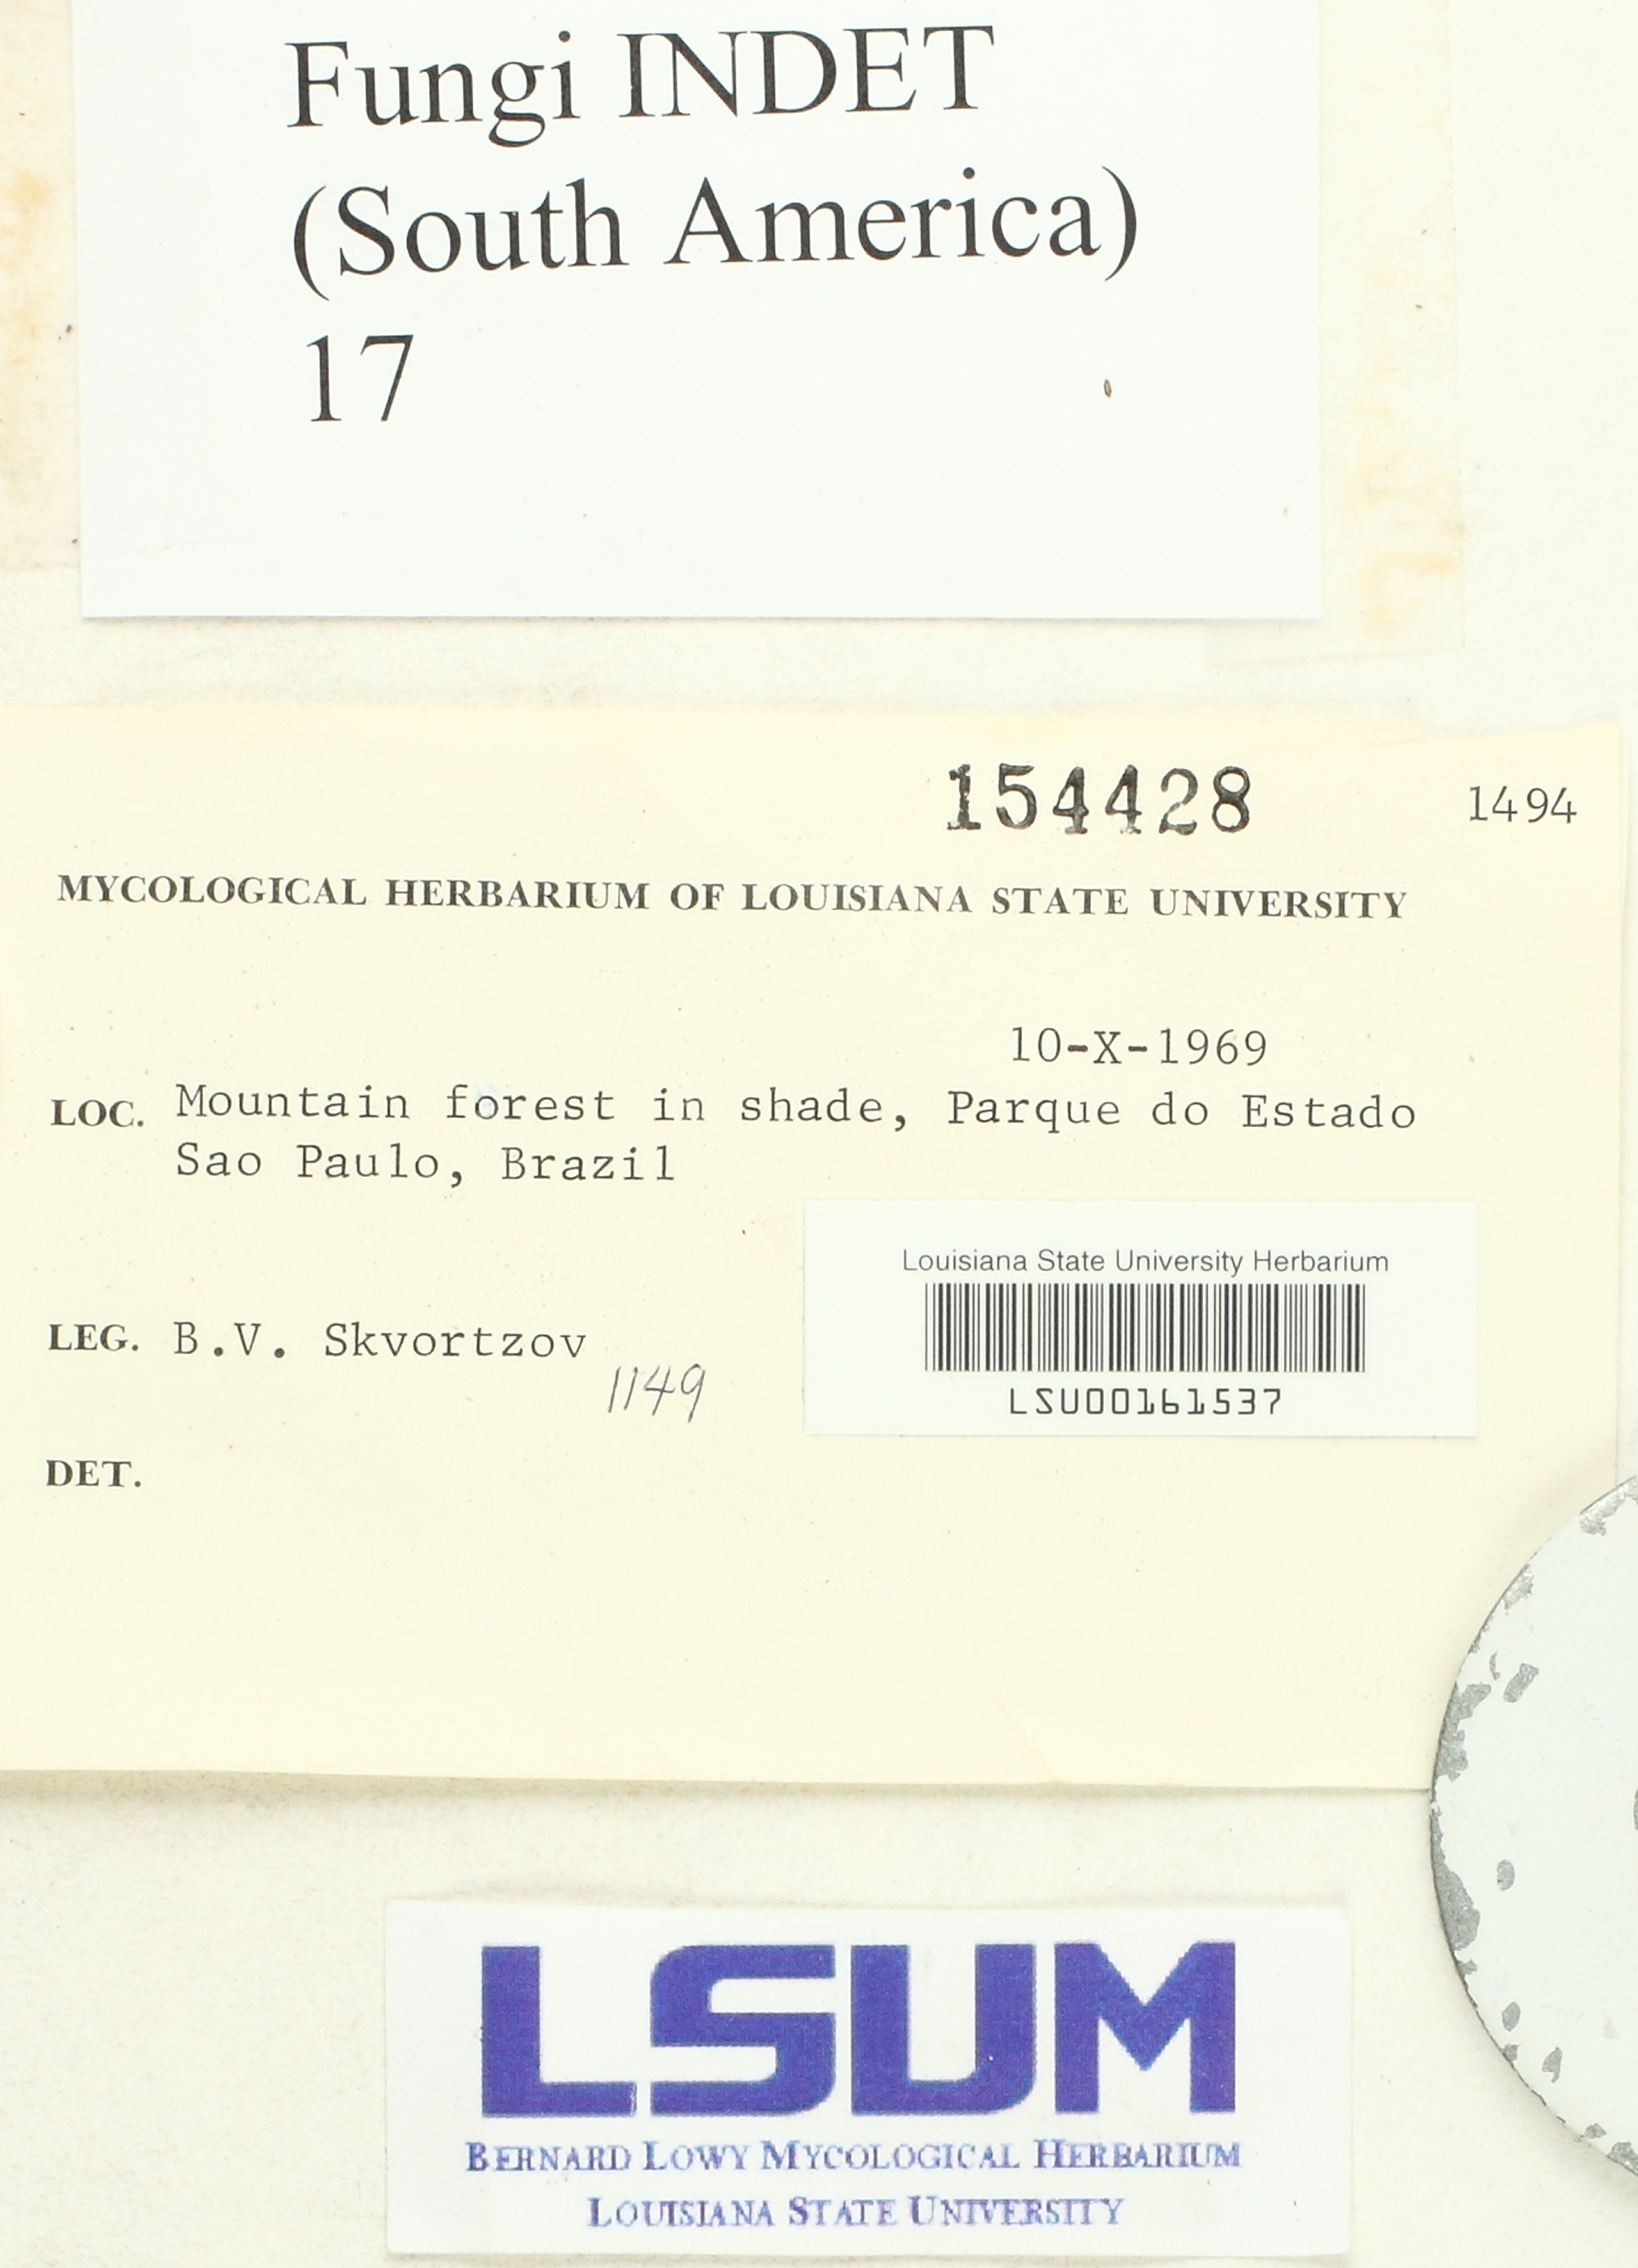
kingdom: Fungi
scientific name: Fungi
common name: Fungi
